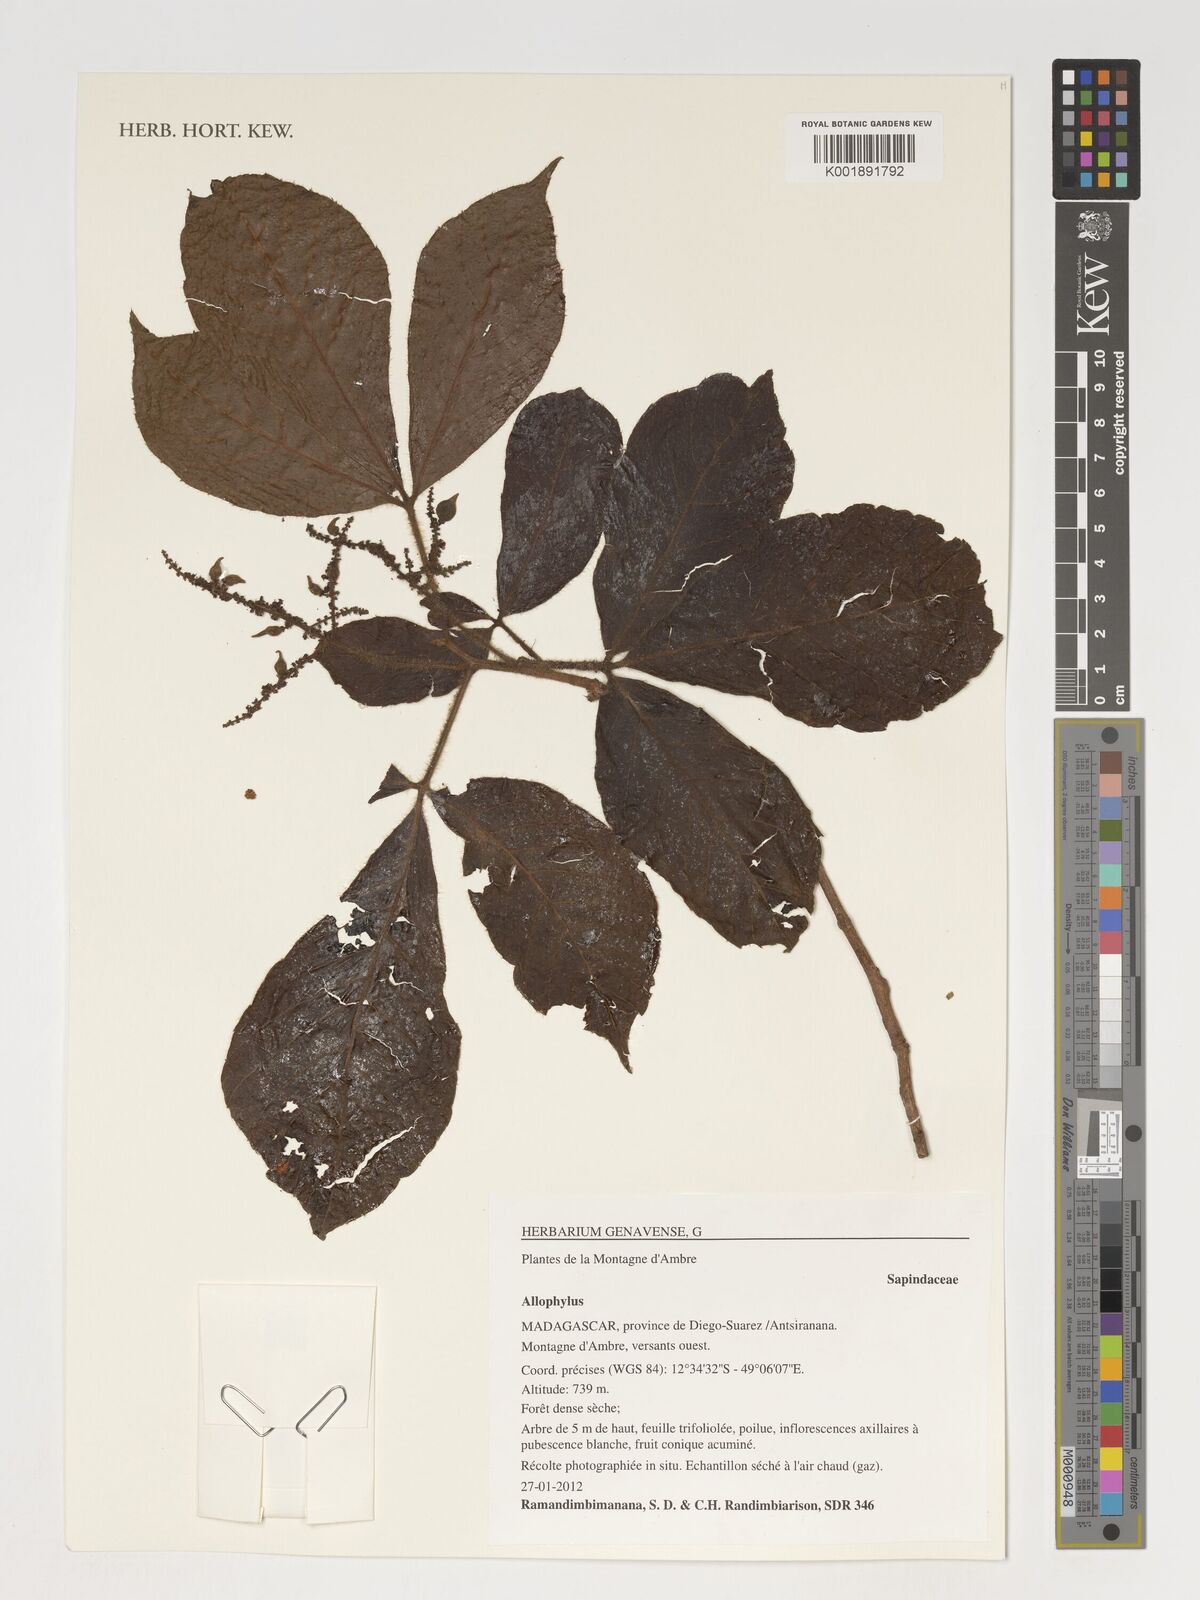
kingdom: Plantae
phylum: Tracheophyta
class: Magnoliopsida
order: Sapindales
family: Sapindaceae
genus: Allophylus
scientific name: Allophylus
